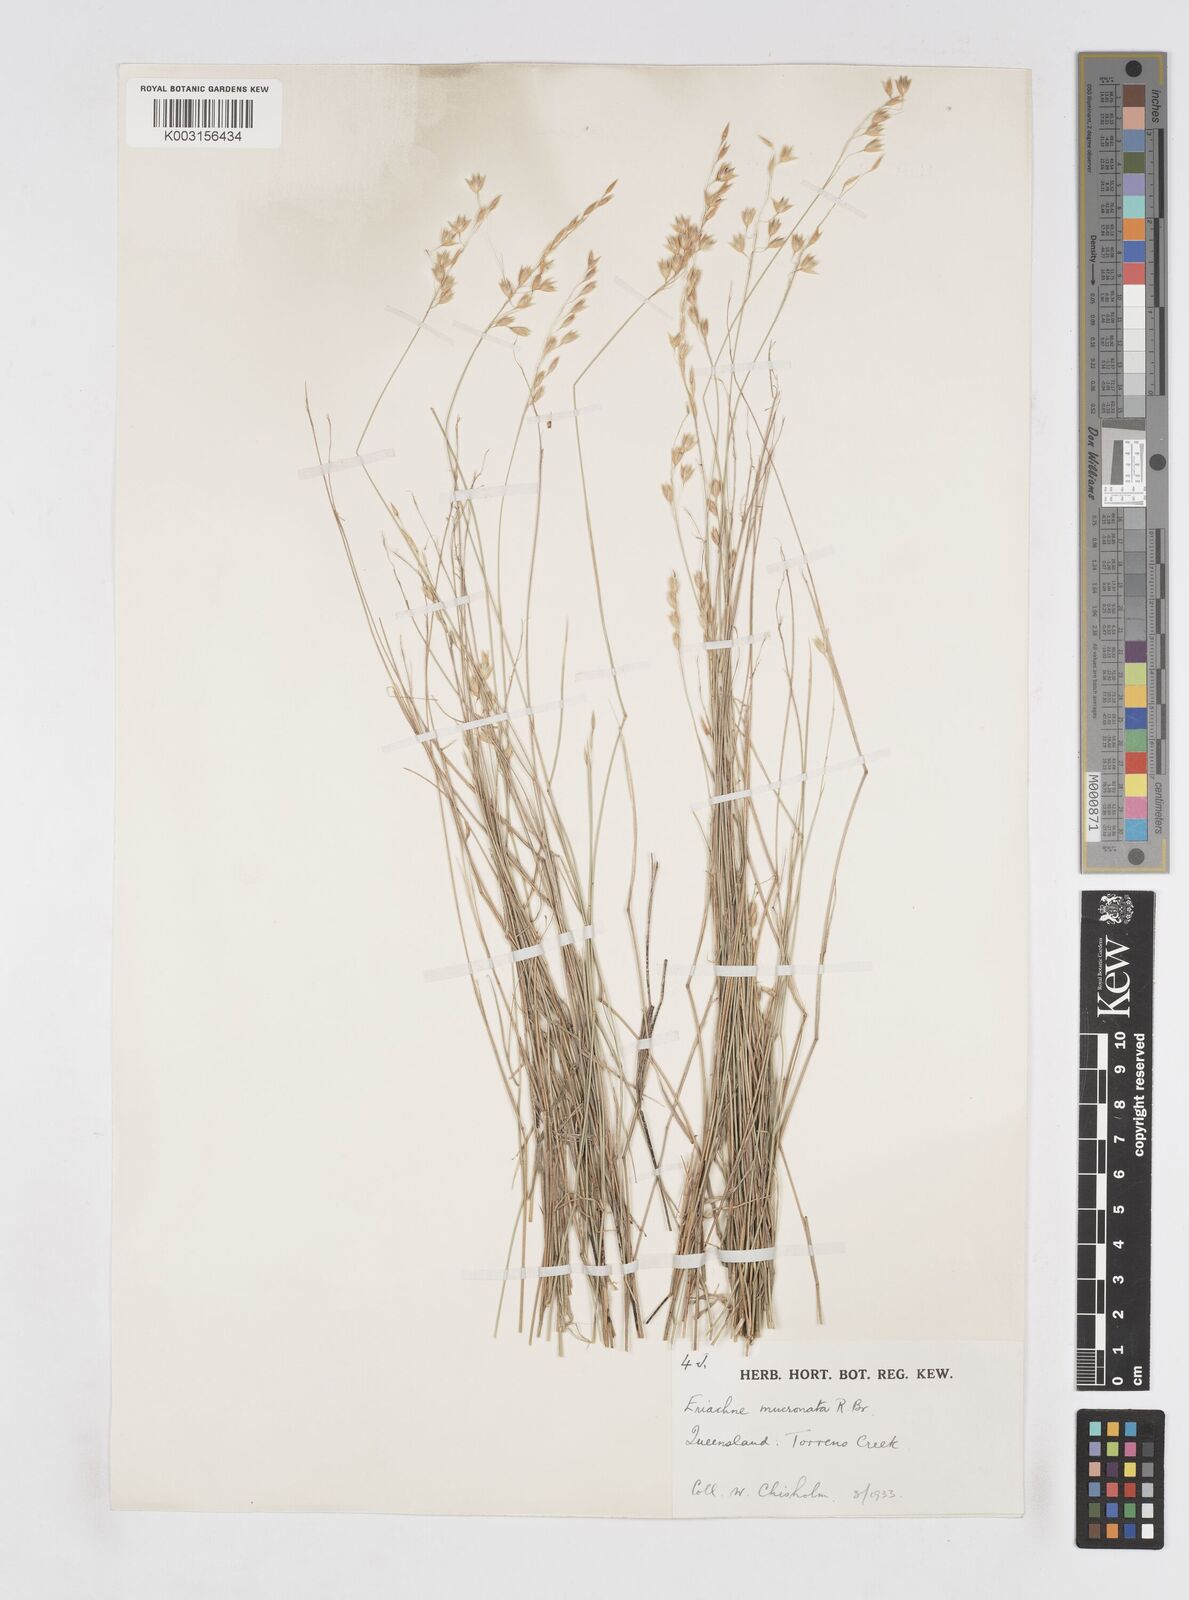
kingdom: Plantae
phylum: Tracheophyta
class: Liliopsida
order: Poales
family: Poaceae
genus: Eriachne
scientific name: Eriachne mucronata
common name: Mountain wanderrie grass
